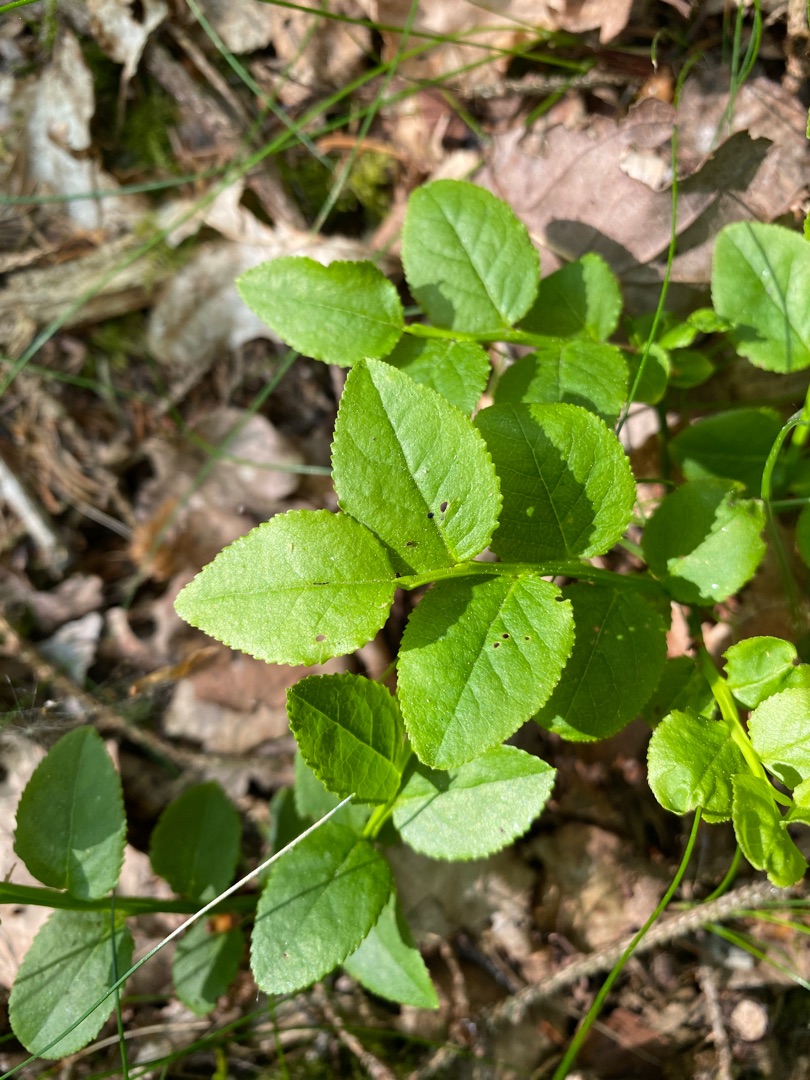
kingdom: Plantae
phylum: Tracheophyta
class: Magnoliopsida
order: Ericales
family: Ericaceae
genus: Vaccinium
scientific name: Vaccinium myrtillus
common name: Blåbær
